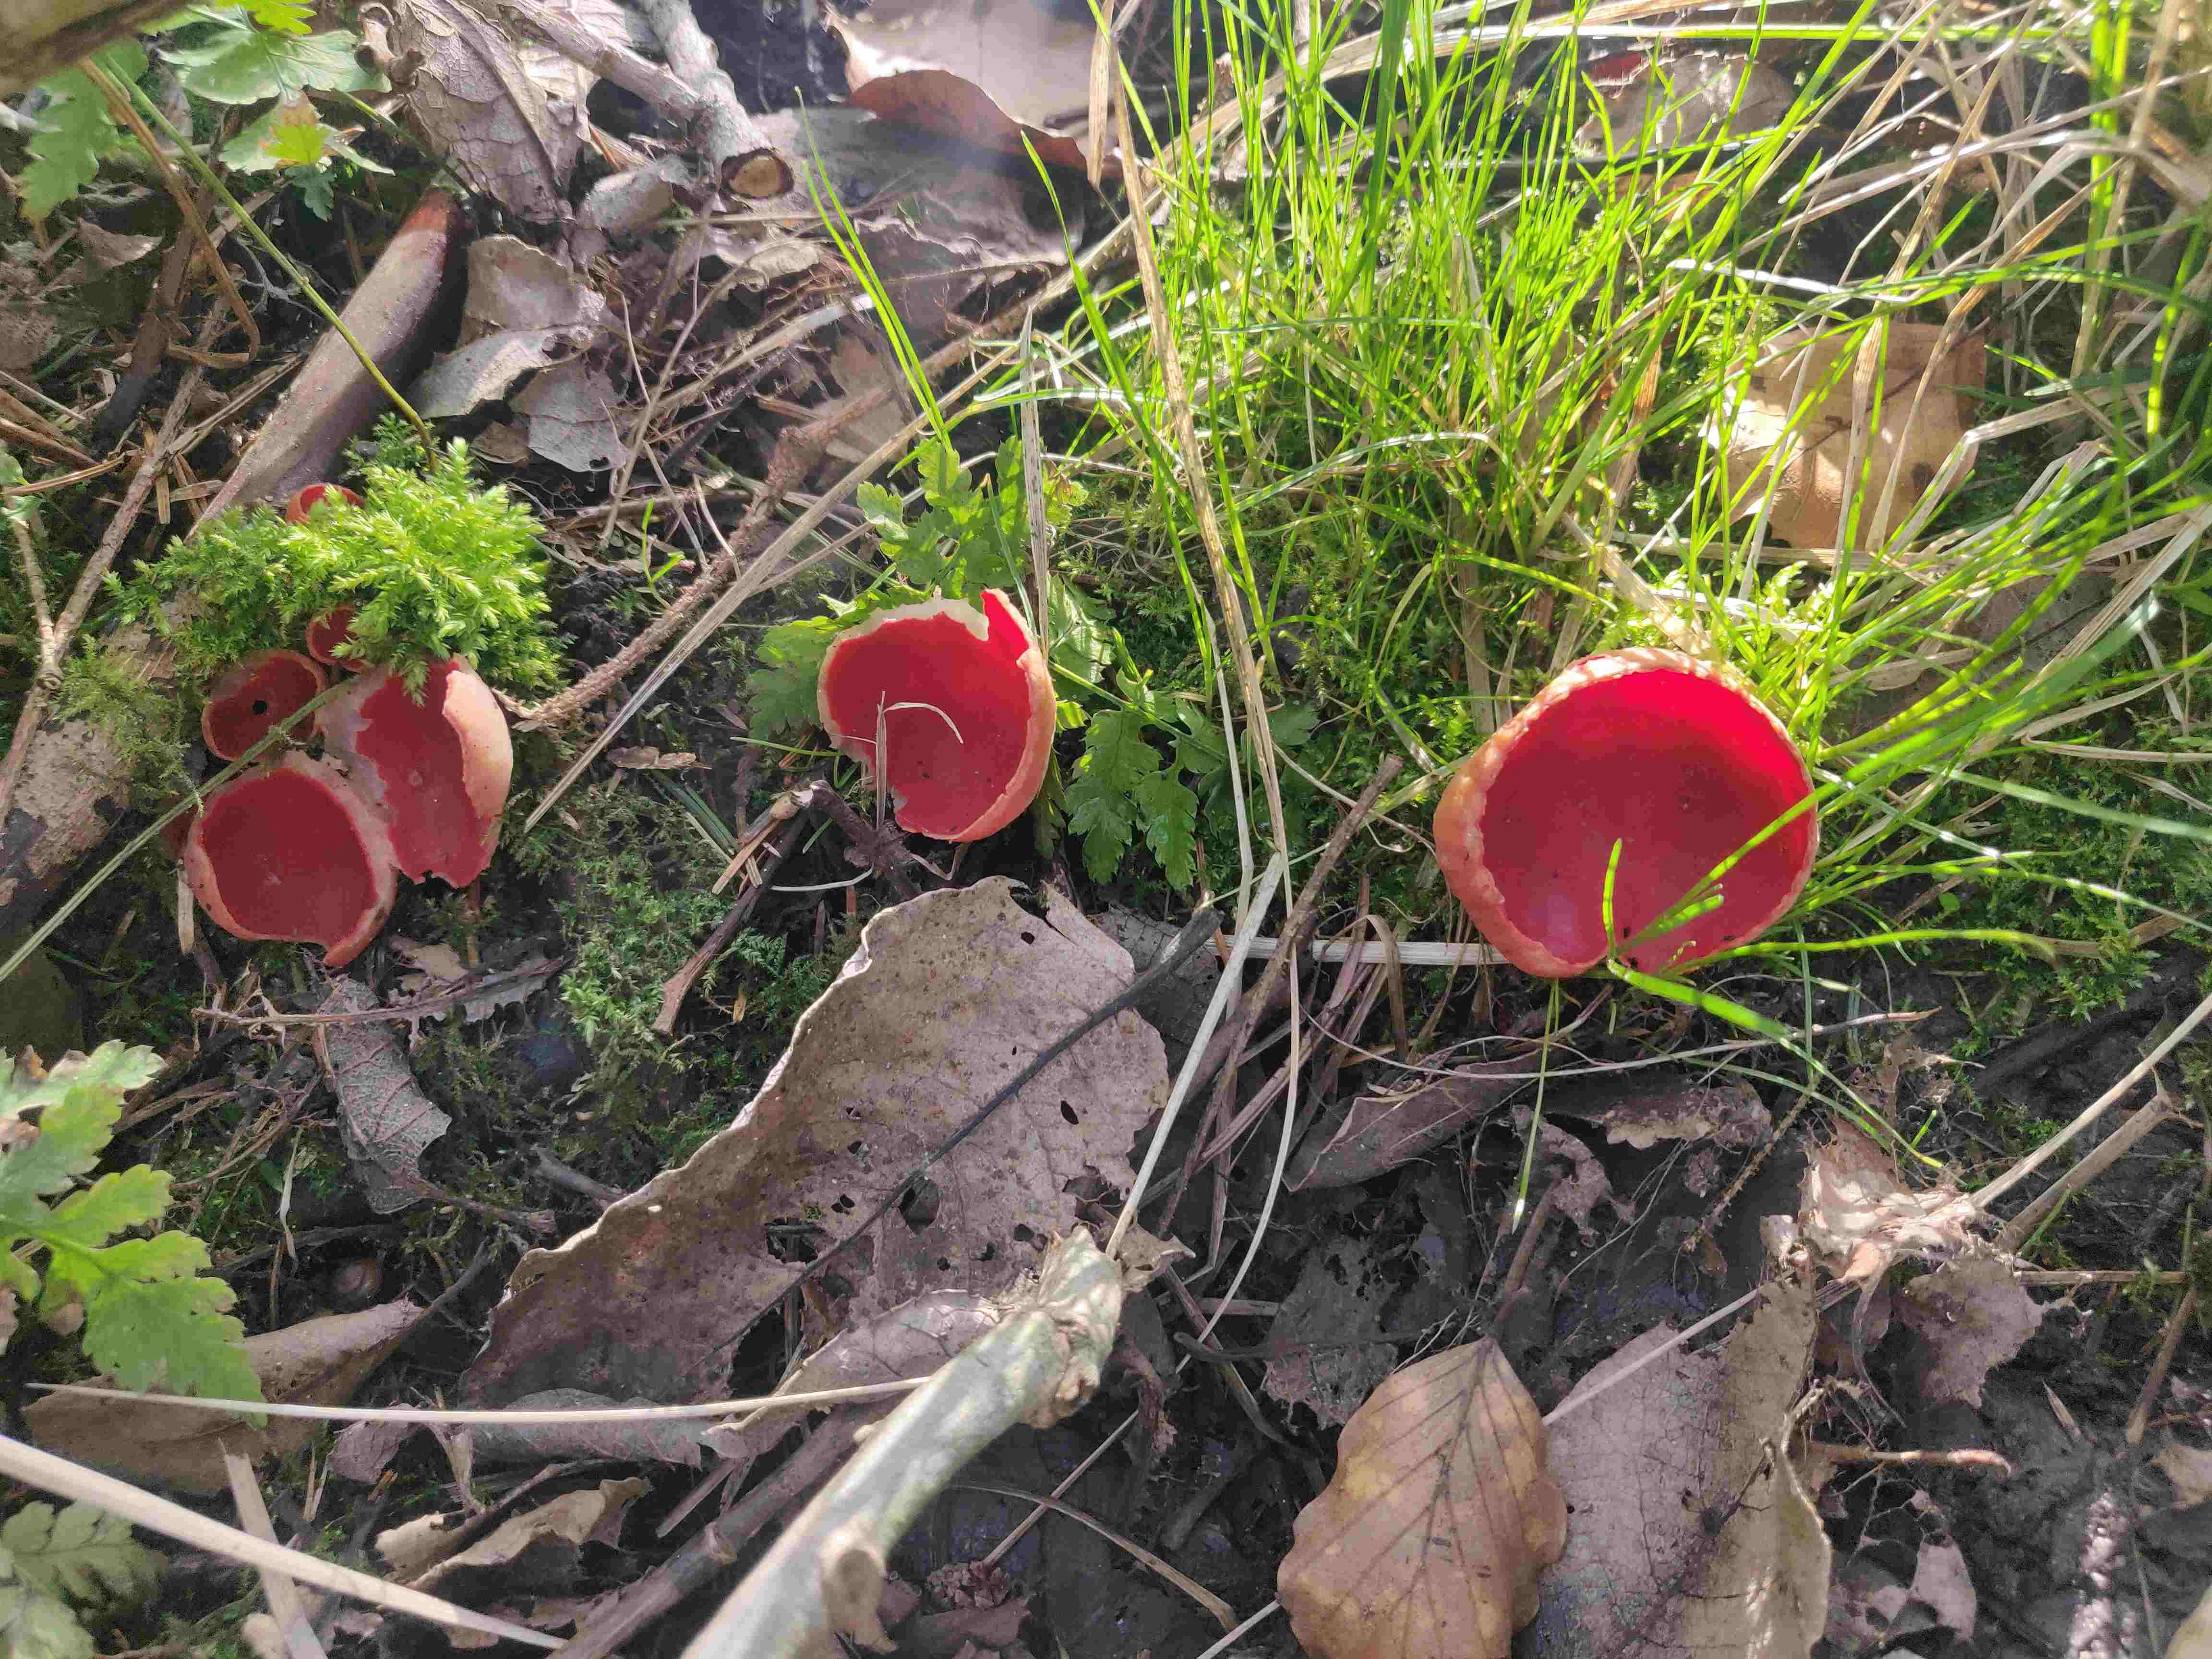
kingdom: Fungi
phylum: Ascomycota
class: Pezizomycetes
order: Pezizales
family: Sarcoscyphaceae
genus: Sarcoscypha
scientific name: Sarcoscypha austriaca
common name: krølhåret pragtbæger
